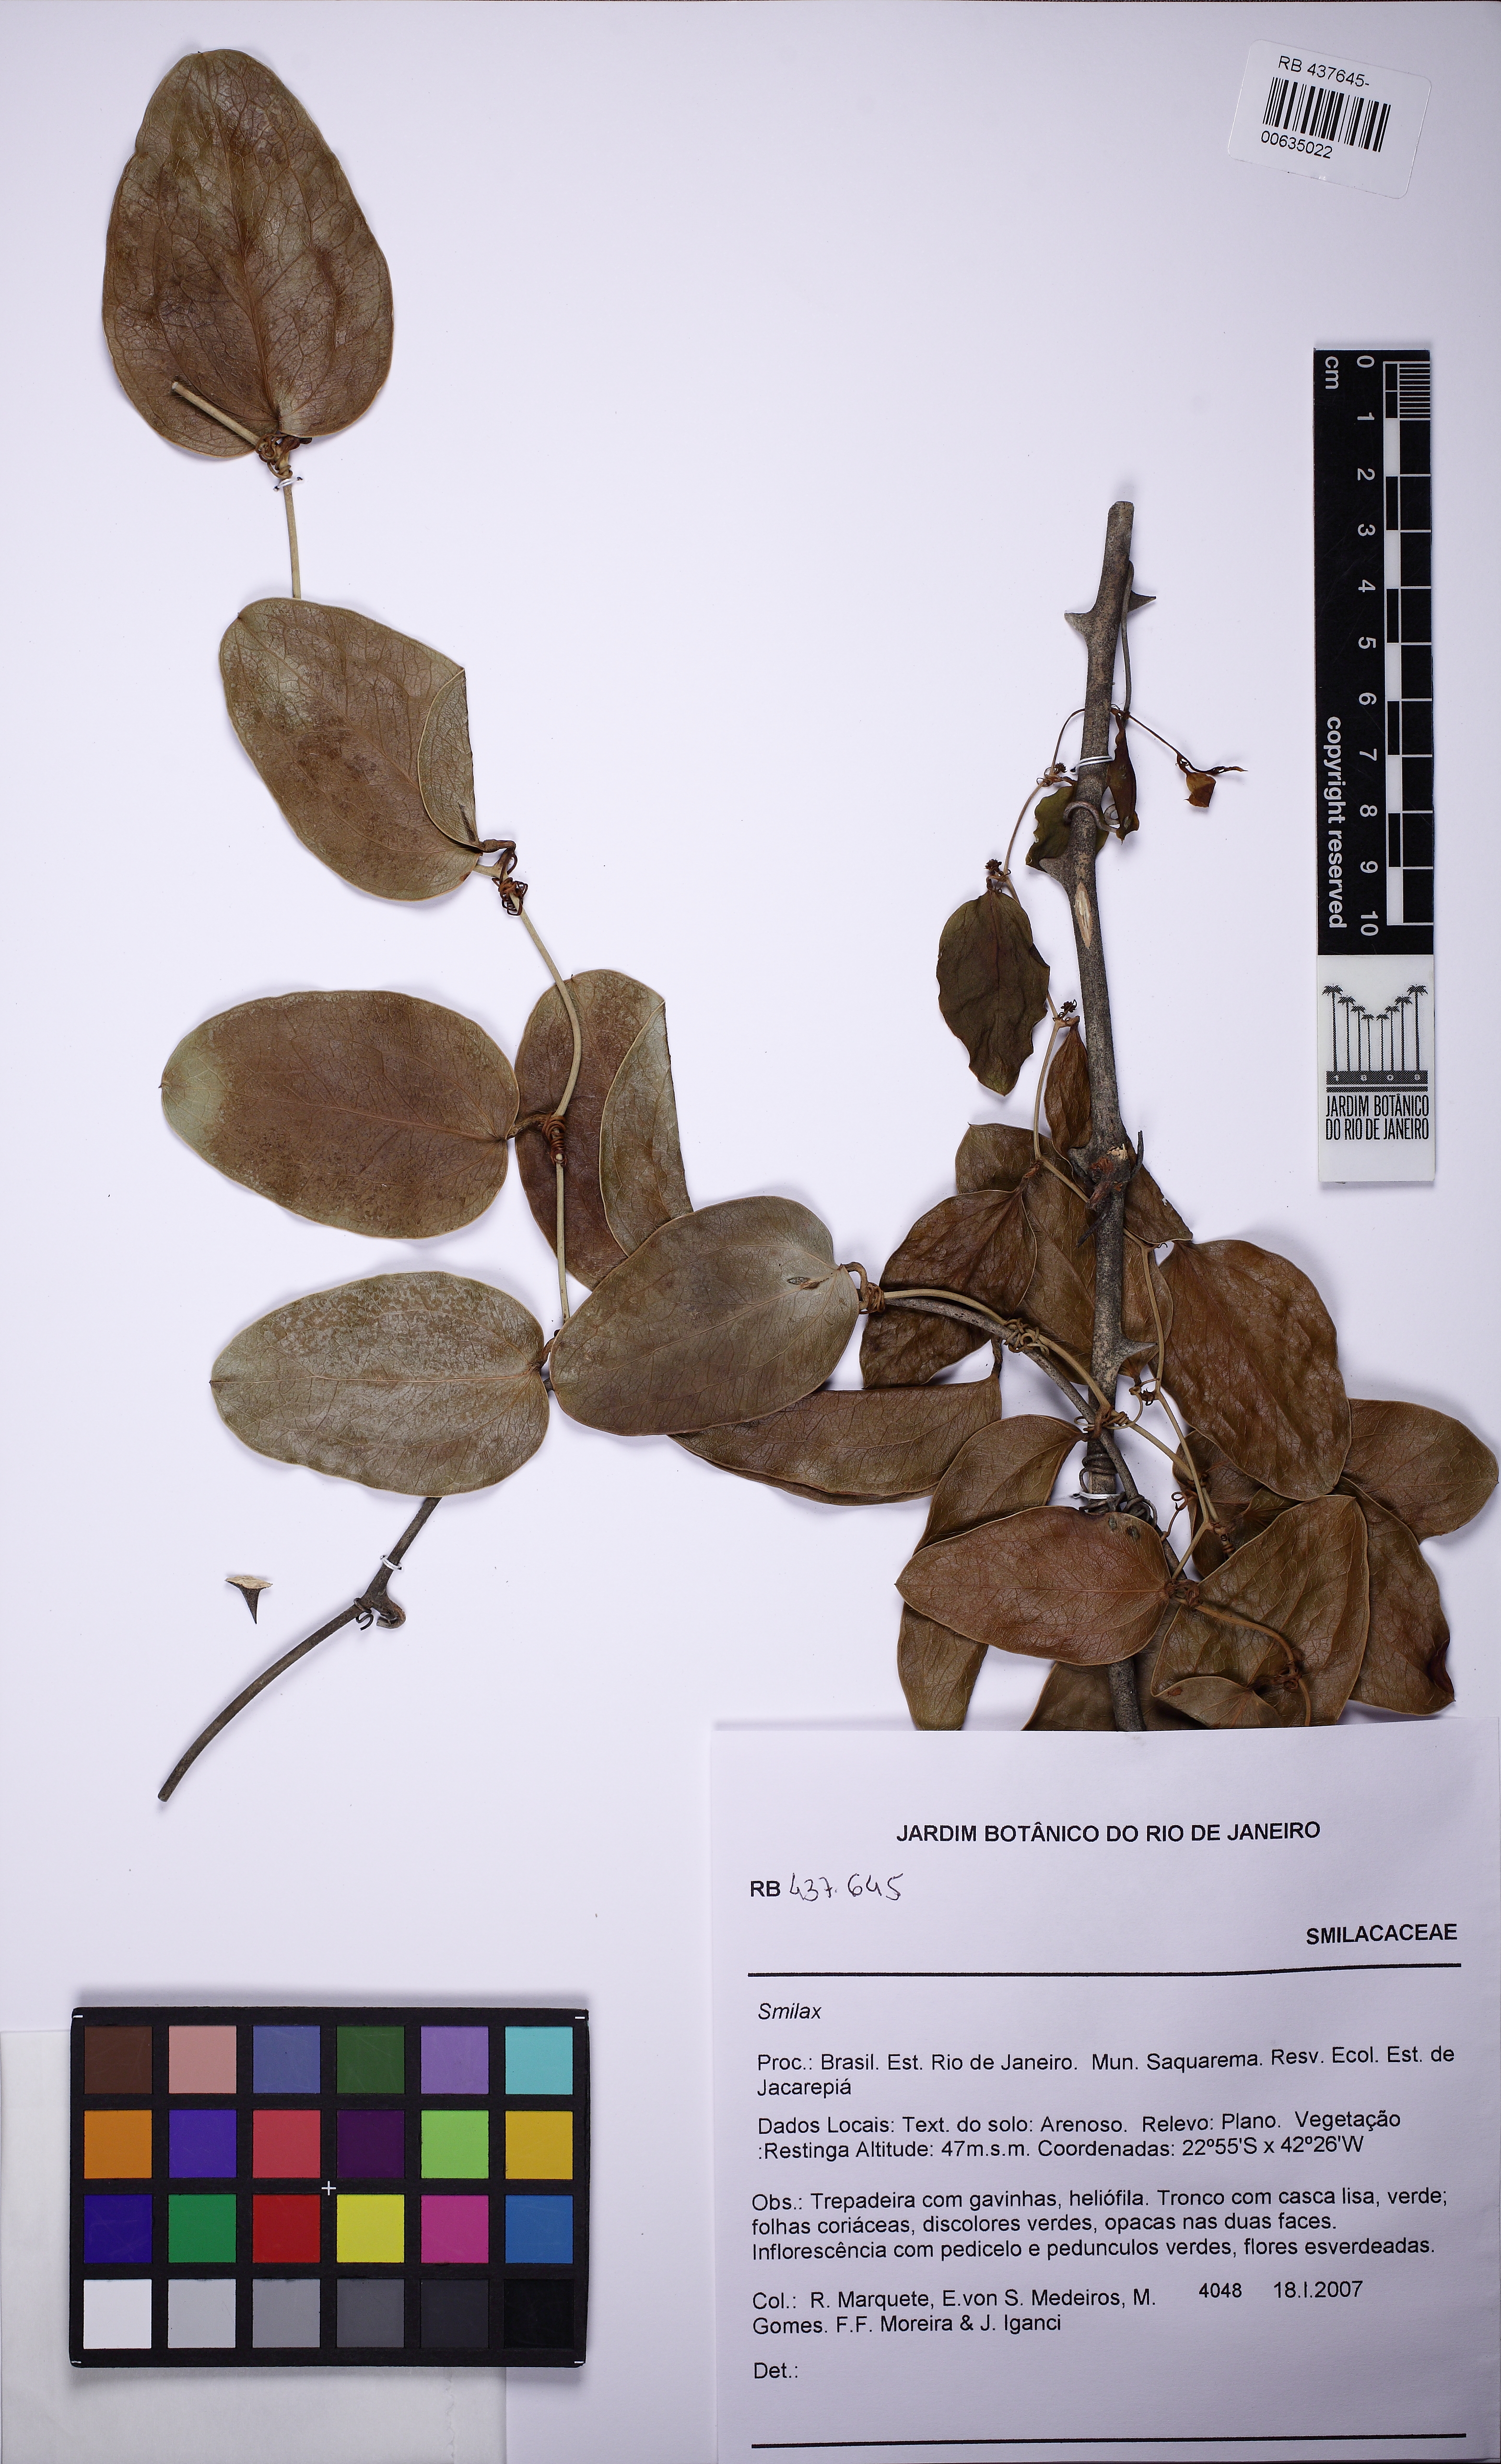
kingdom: Plantae
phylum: Tracheophyta
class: Liliopsida
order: Liliales
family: Smilacaceae
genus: Smilax
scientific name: Smilax
